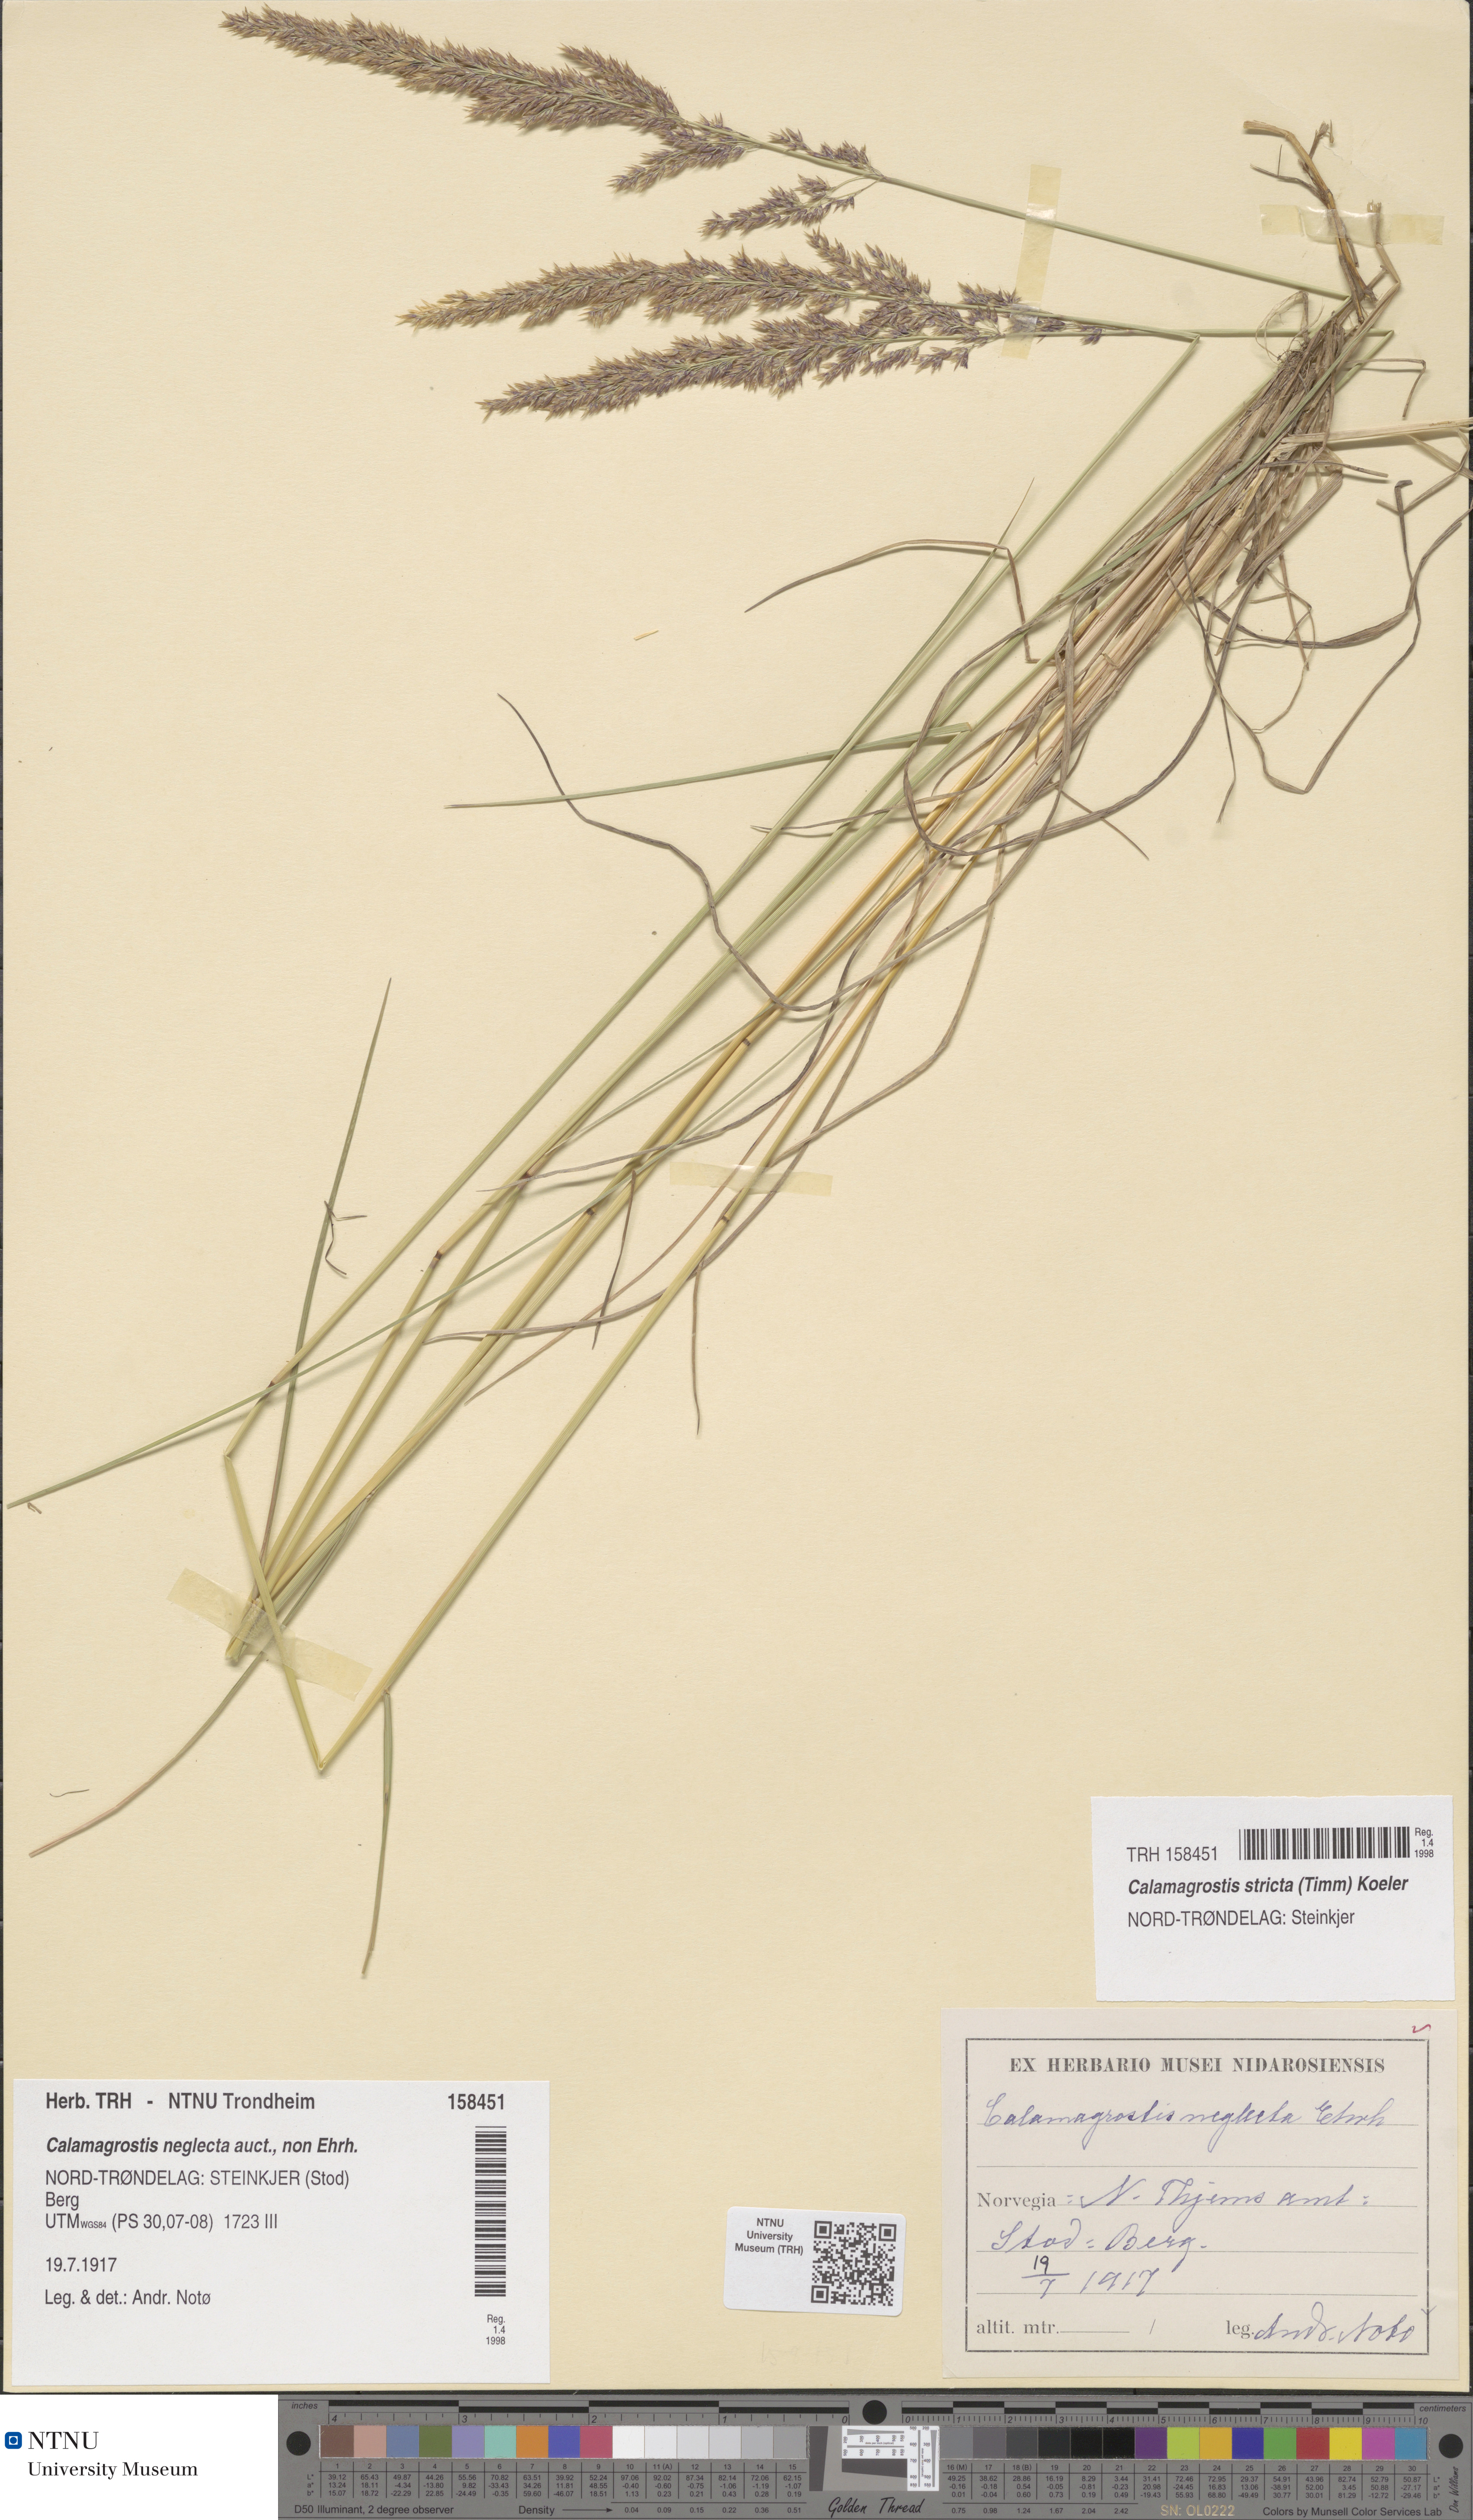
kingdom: Plantae
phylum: Tracheophyta
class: Liliopsida
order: Poales
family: Poaceae
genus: Achnatherum
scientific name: Achnatherum calamagrostis
